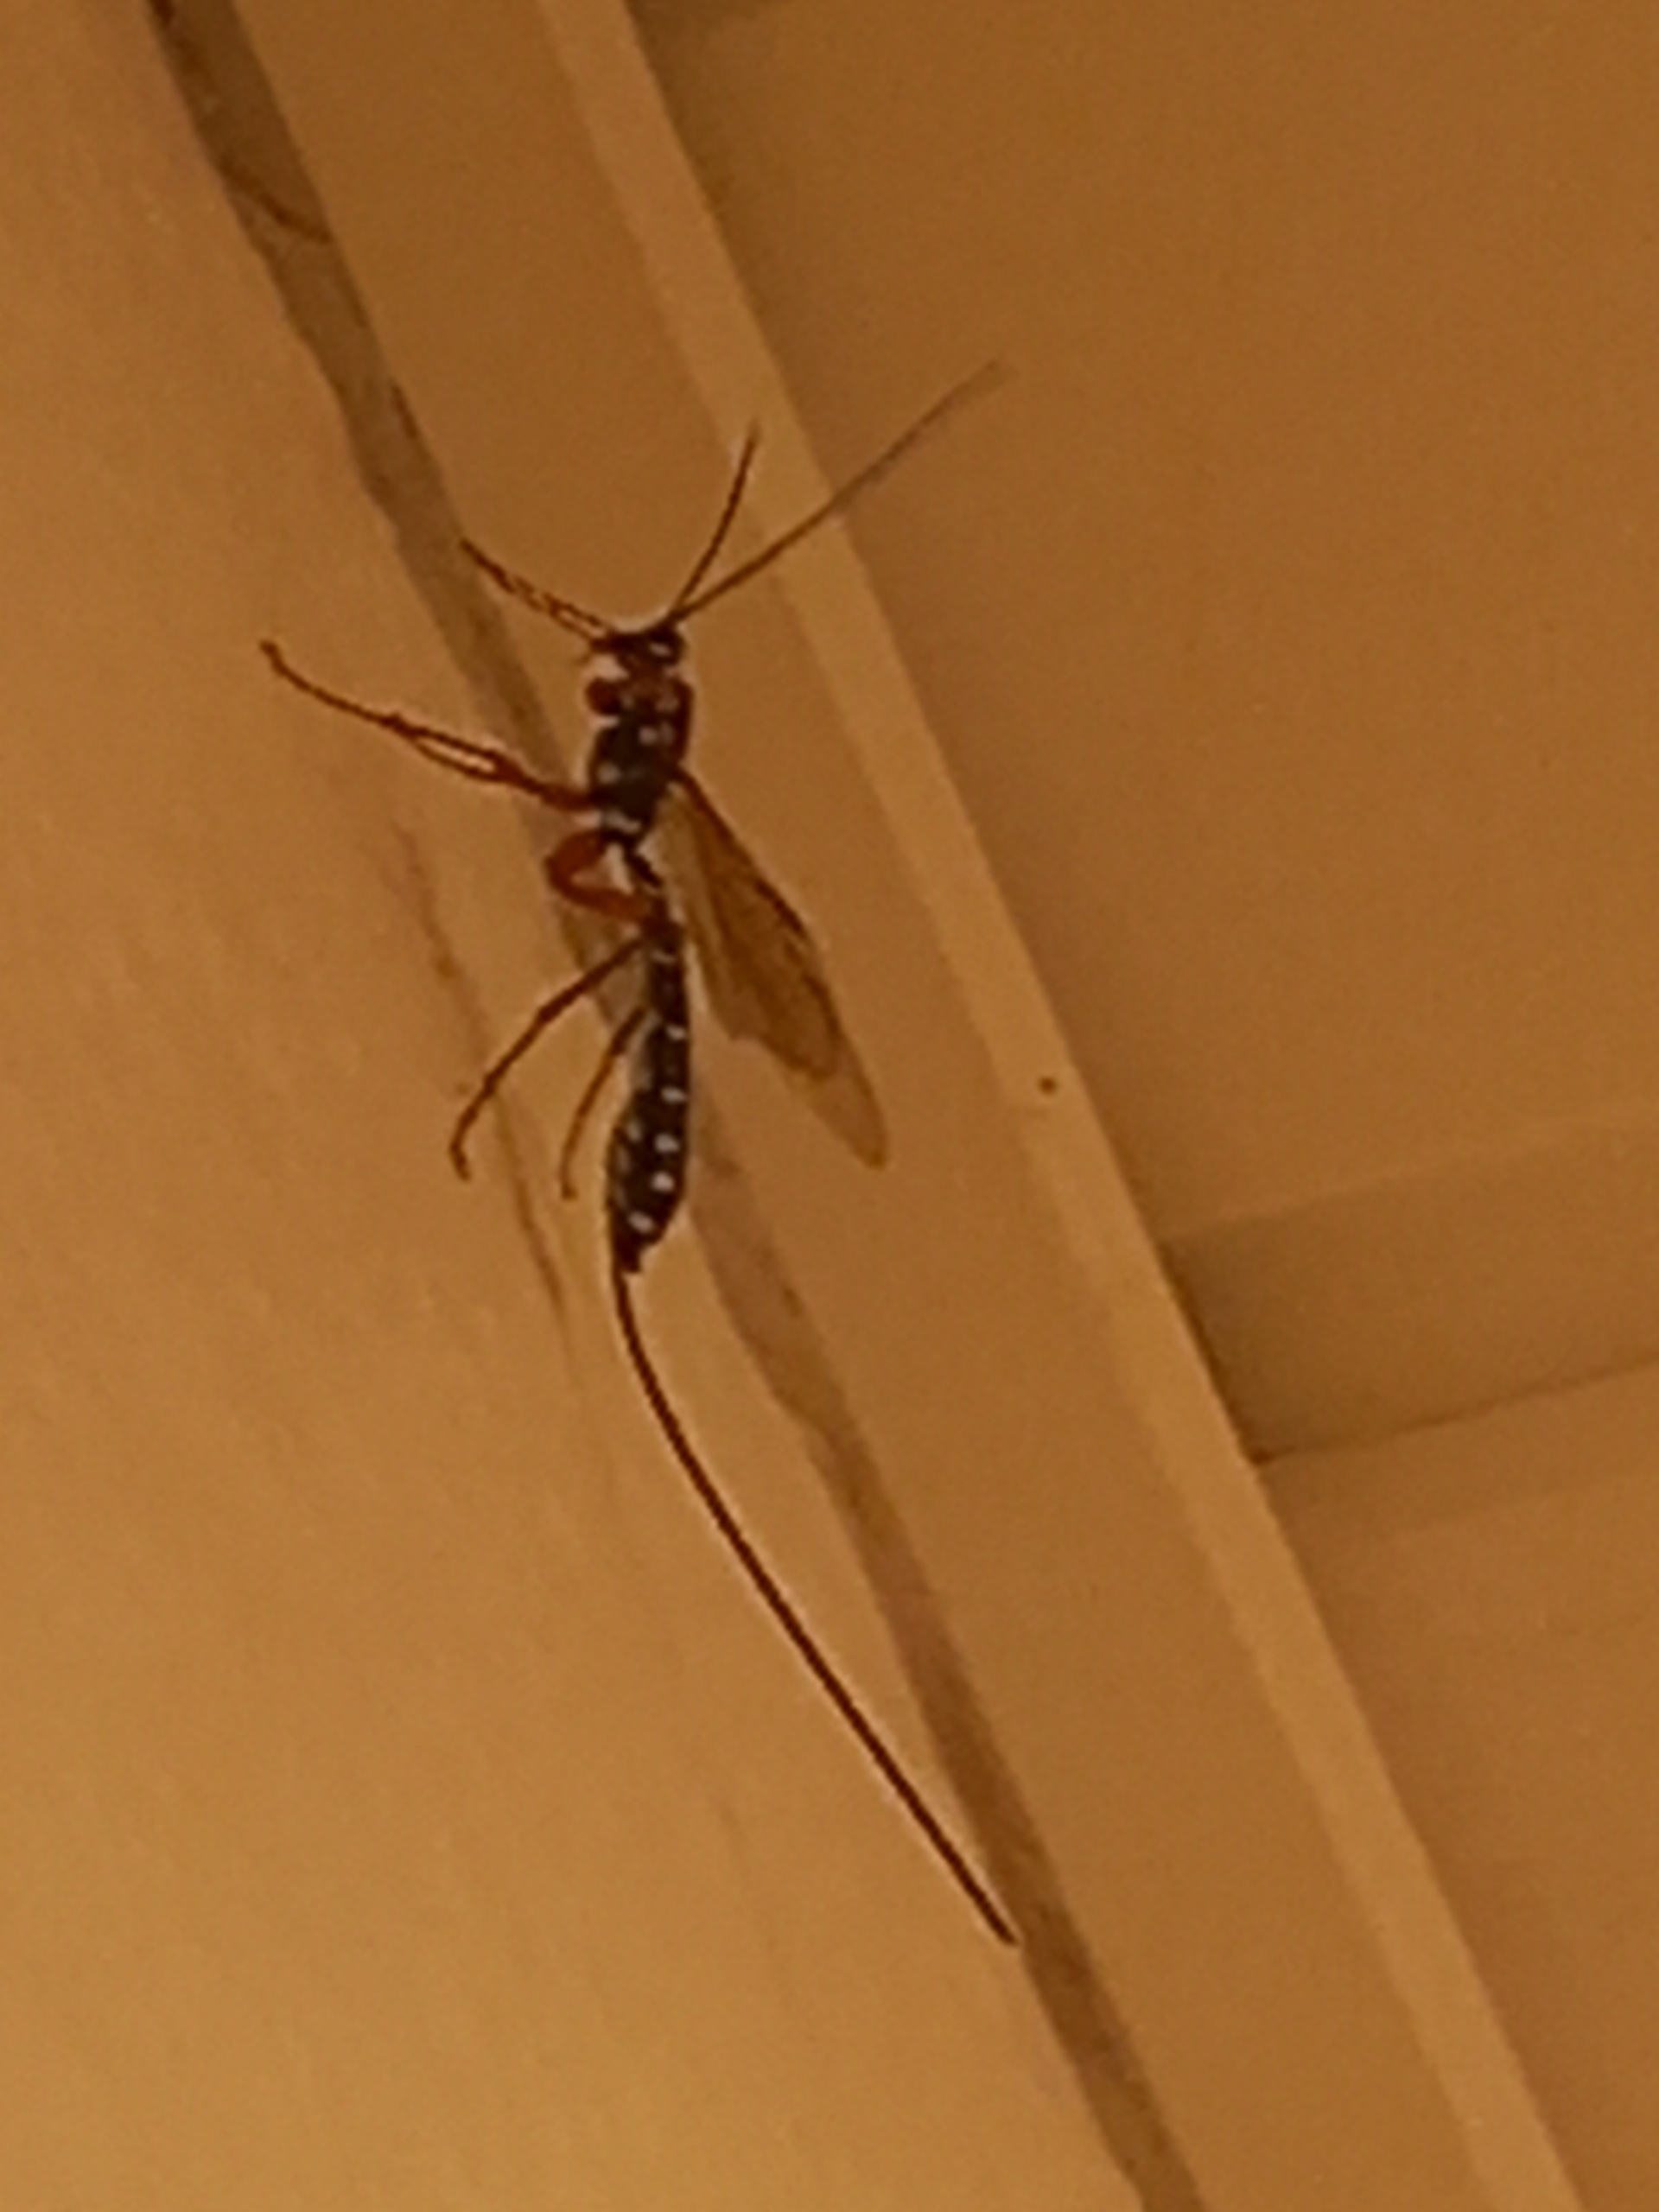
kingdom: Animalia
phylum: Arthropoda
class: Insecta
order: Hymenoptera
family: Ichneumonidae
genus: Rhyssa
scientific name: Rhyssa persuasoria
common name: Sabelhveps
